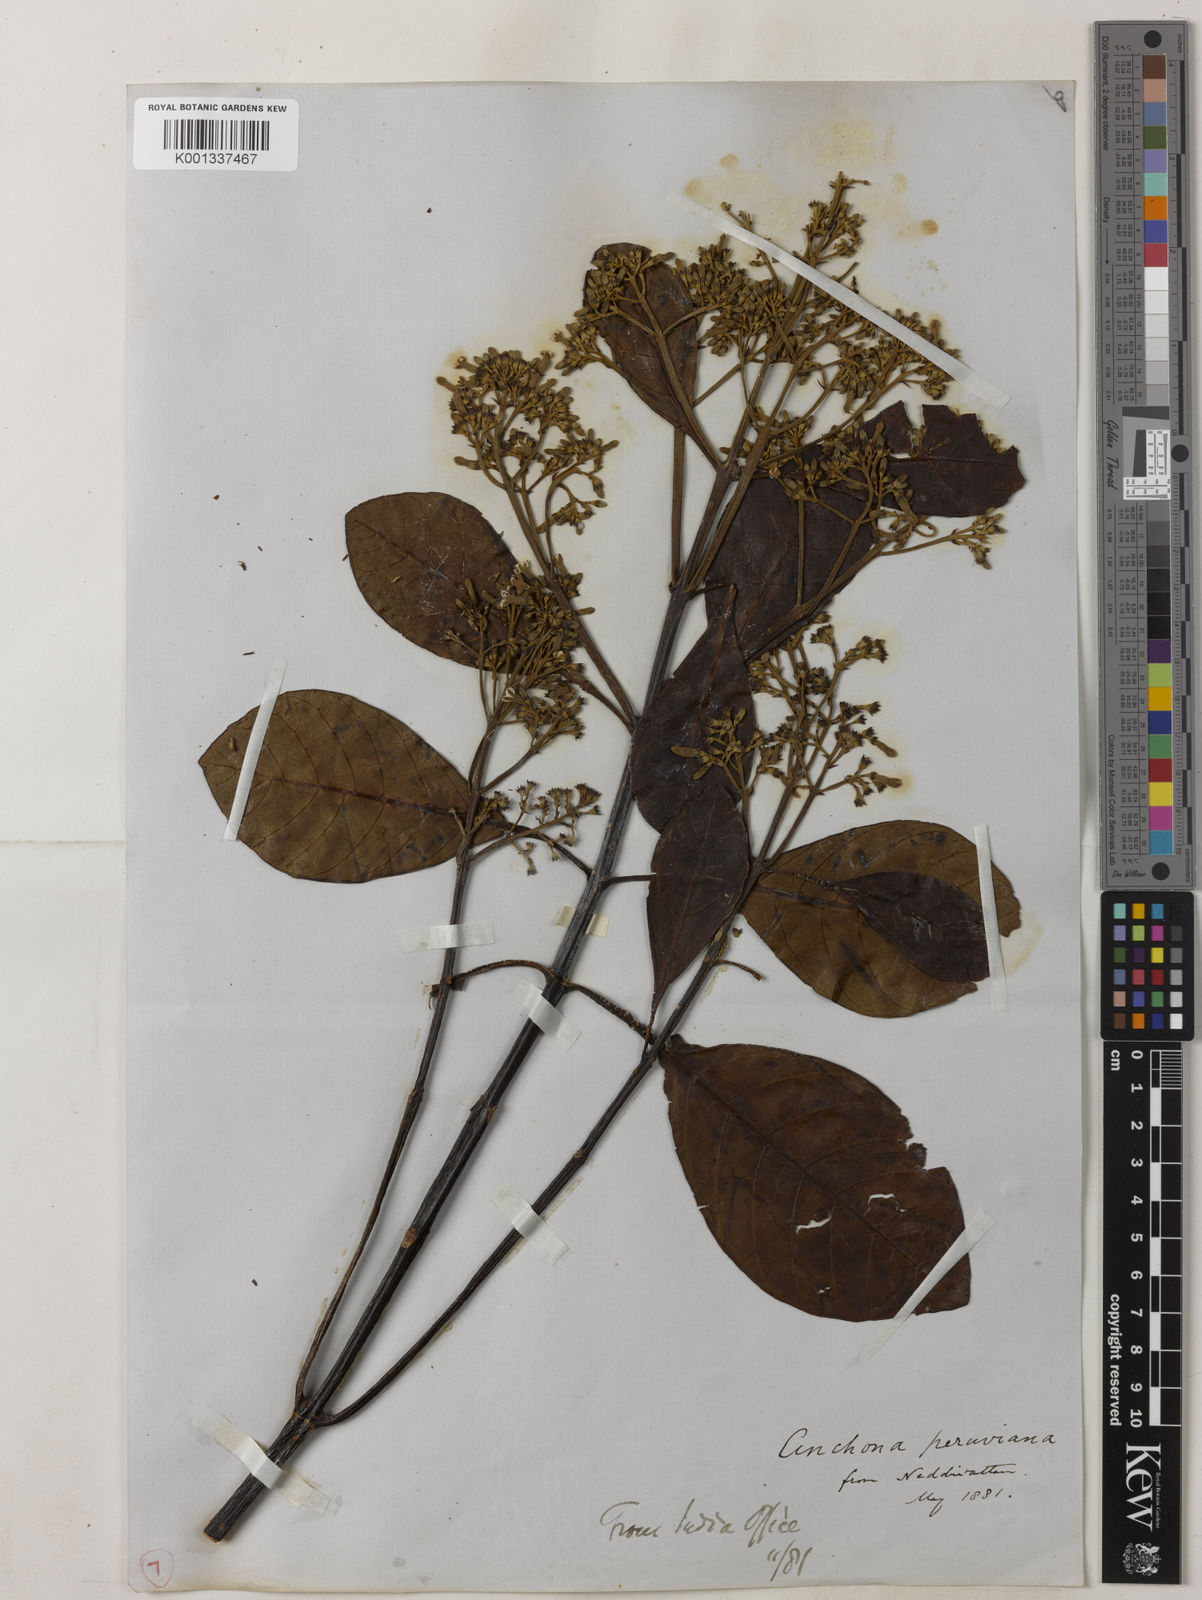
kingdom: Plantae
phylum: Tracheophyta
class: Magnoliopsida
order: Gentianales
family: Rubiaceae
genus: Cinchona
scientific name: Cinchona calisaya
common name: Ledgerbark
